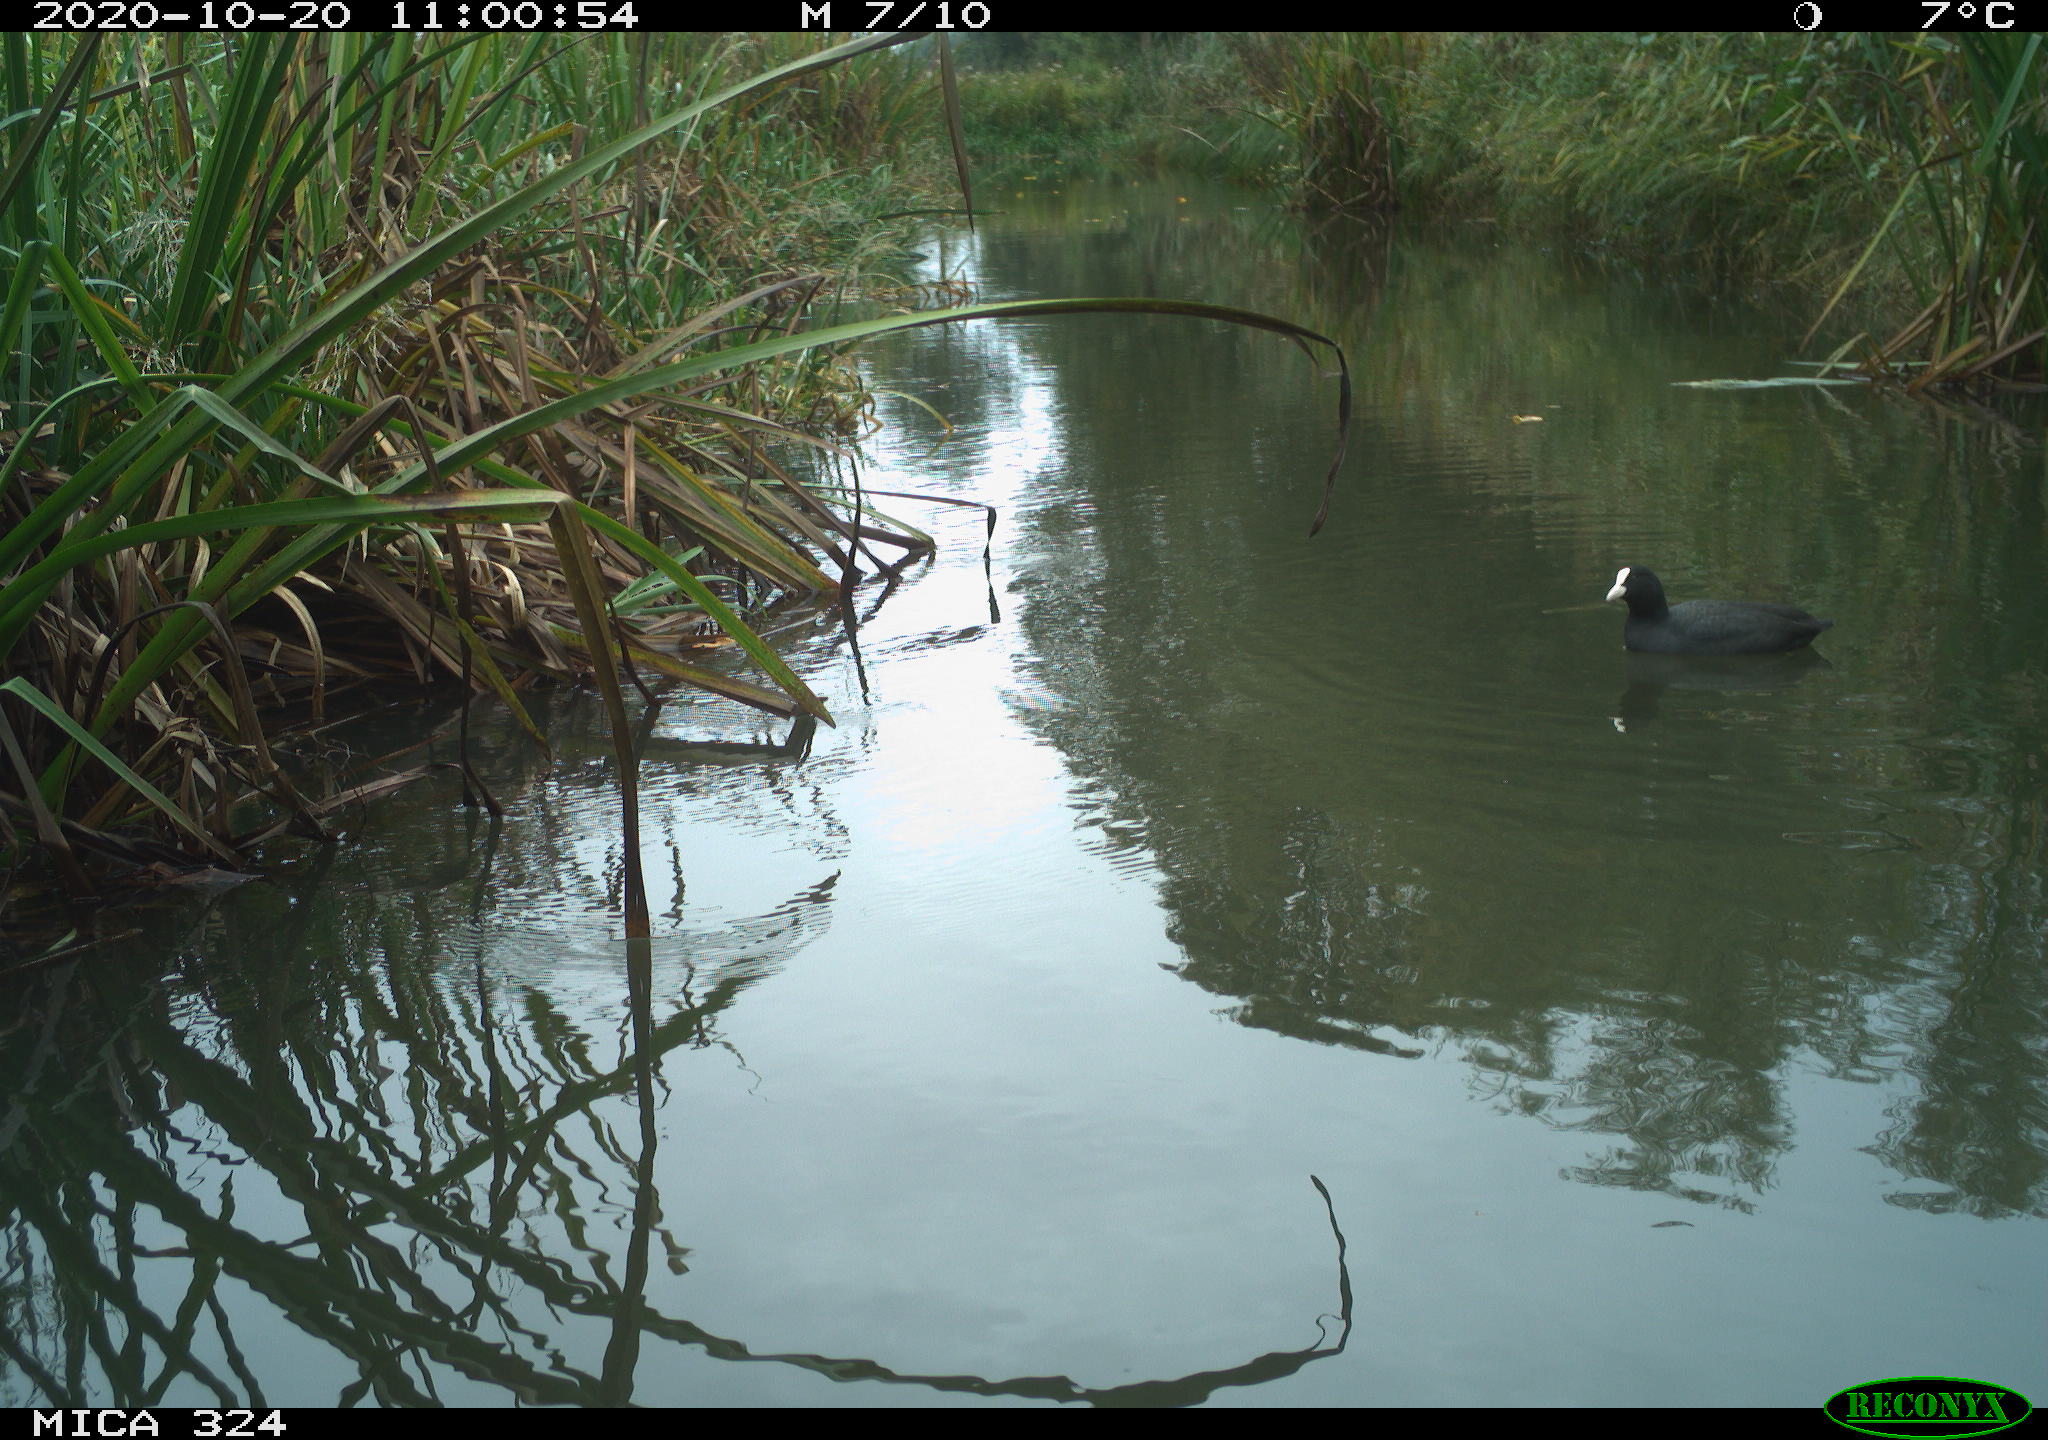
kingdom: Animalia
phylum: Chordata
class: Aves
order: Gruiformes
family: Rallidae
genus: Fulica
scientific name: Fulica atra
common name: Eurasian coot
